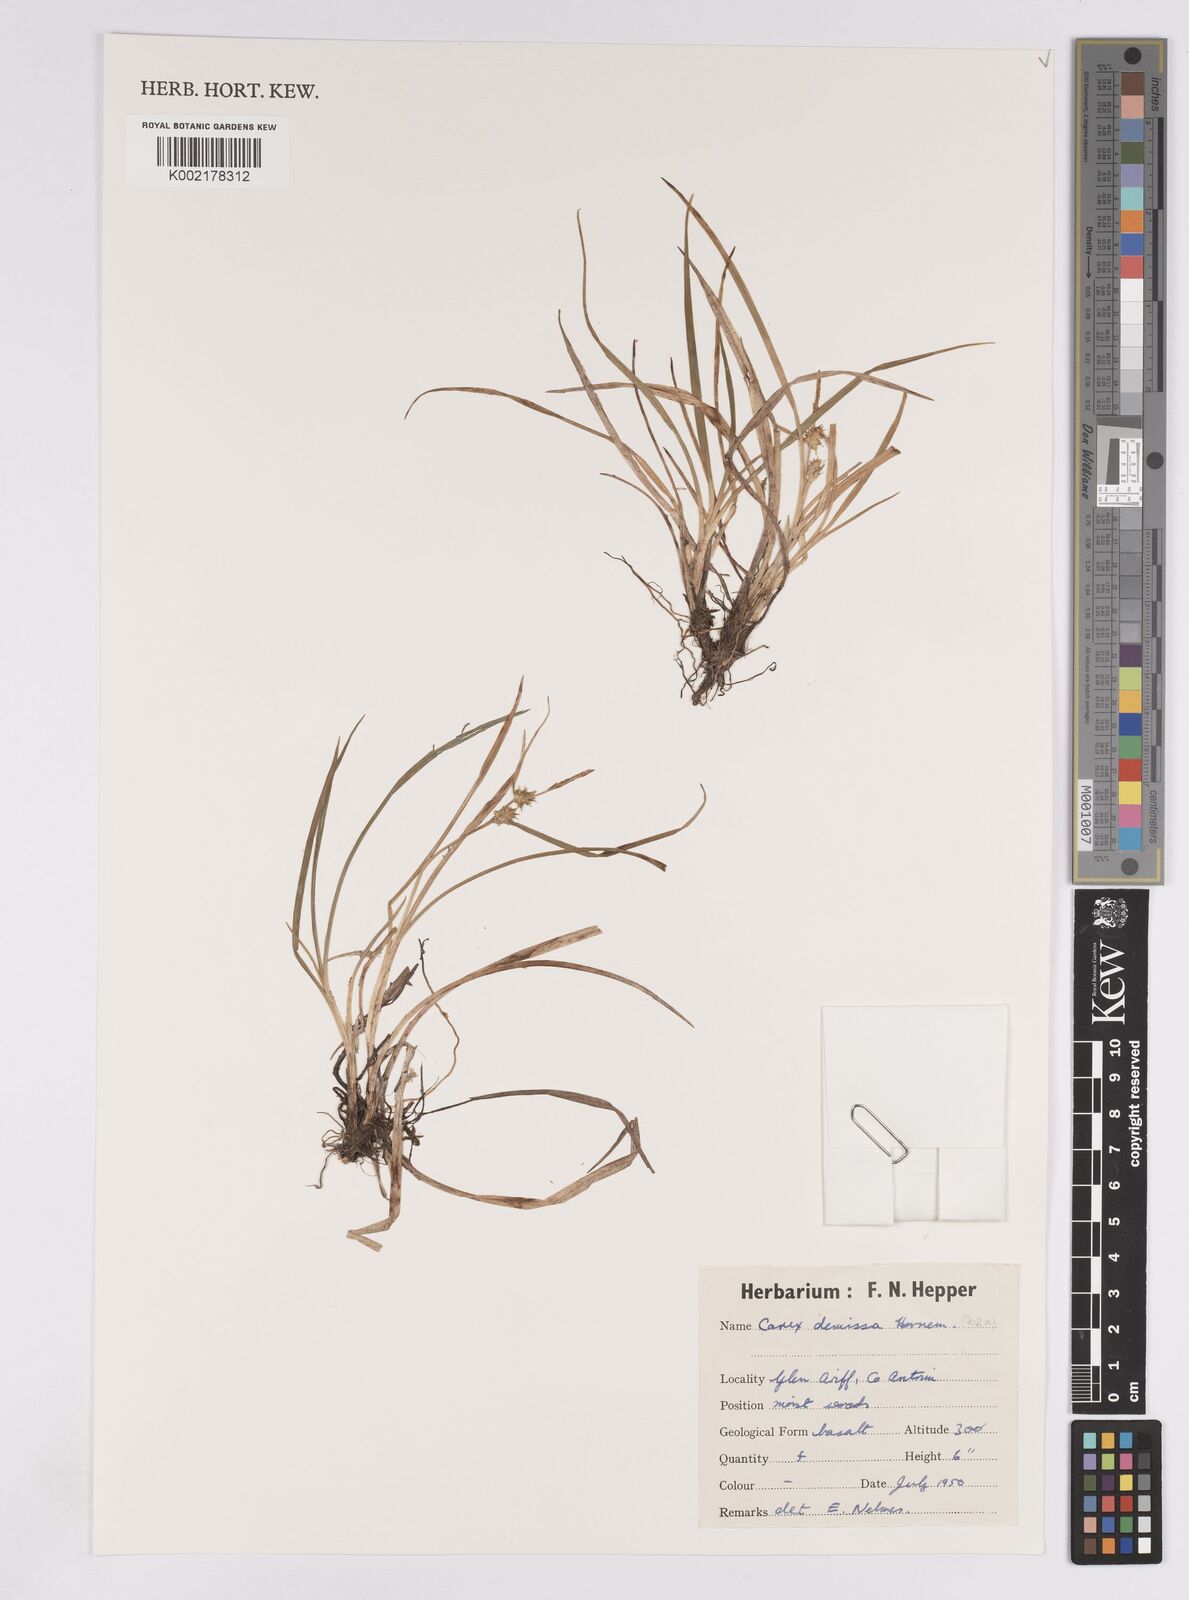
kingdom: Plantae
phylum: Tracheophyta
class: Liliopsida
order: Poales
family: Cyperaceae
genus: Carex
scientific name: Carex demissa
